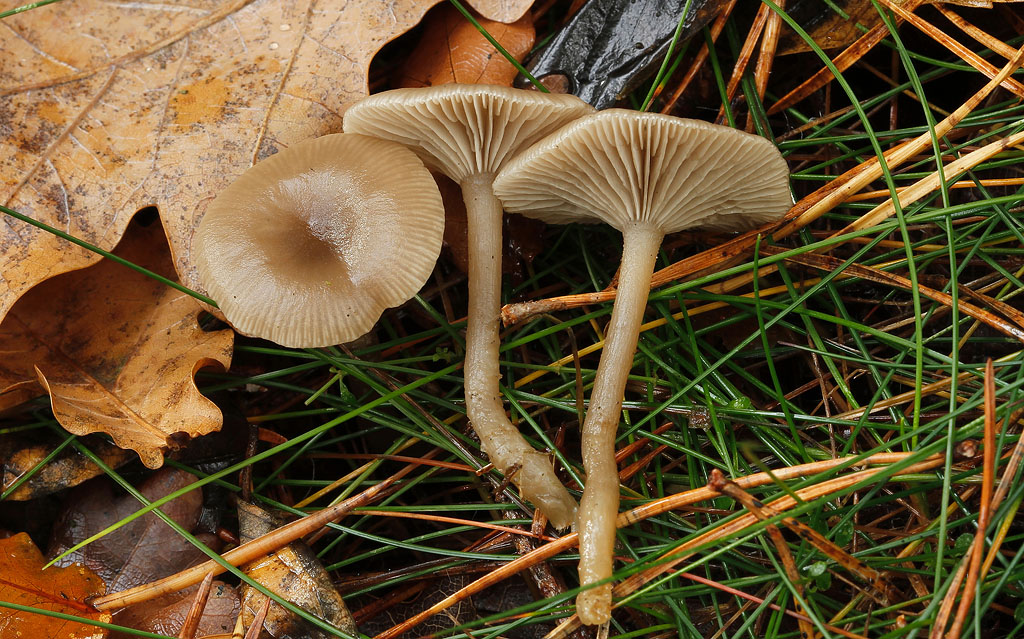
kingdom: Fungi
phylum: Basidiomycota
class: Agaricomycetes
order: Agaricales
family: Tricholomataceae
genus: Clitocybe
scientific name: Clitocybe vibecina
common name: randstribet tragthat
